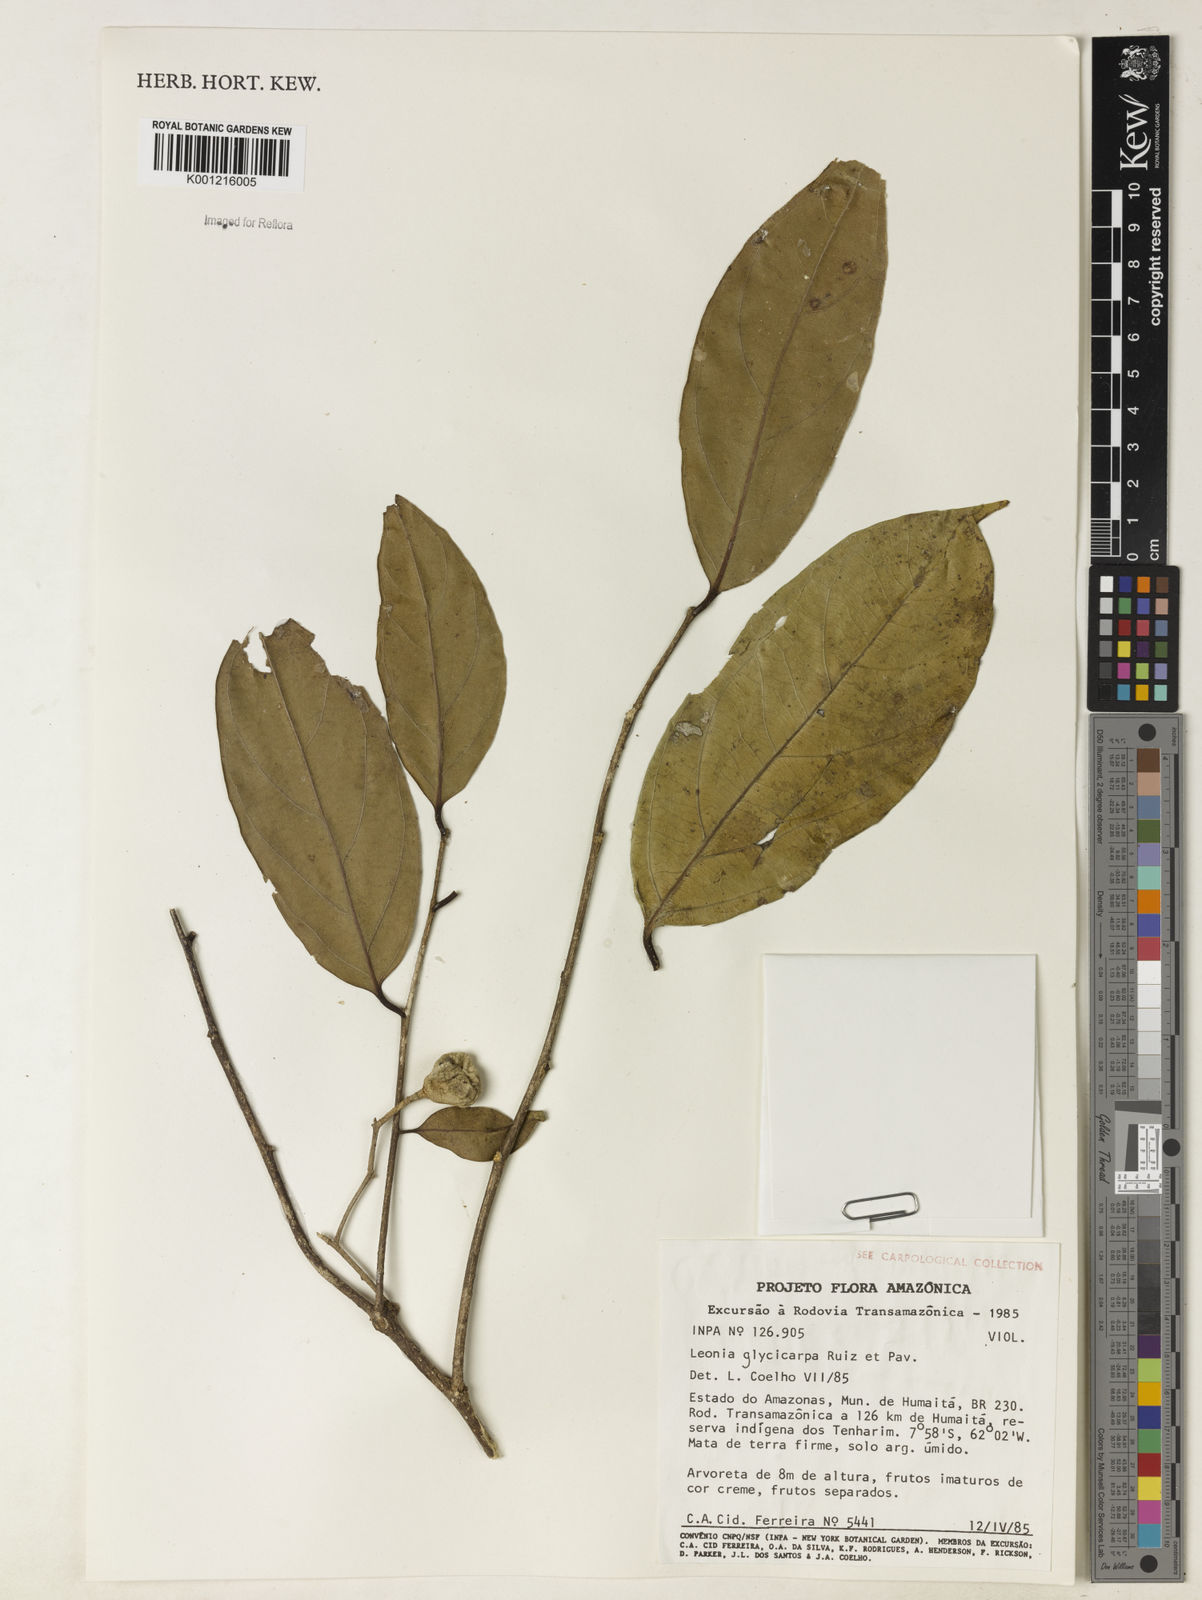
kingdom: Plantae
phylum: Tracheophyta
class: Magnoliopsida
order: Malpighiales
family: Violaceae
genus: Leonia
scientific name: Leonia glycycarpa
